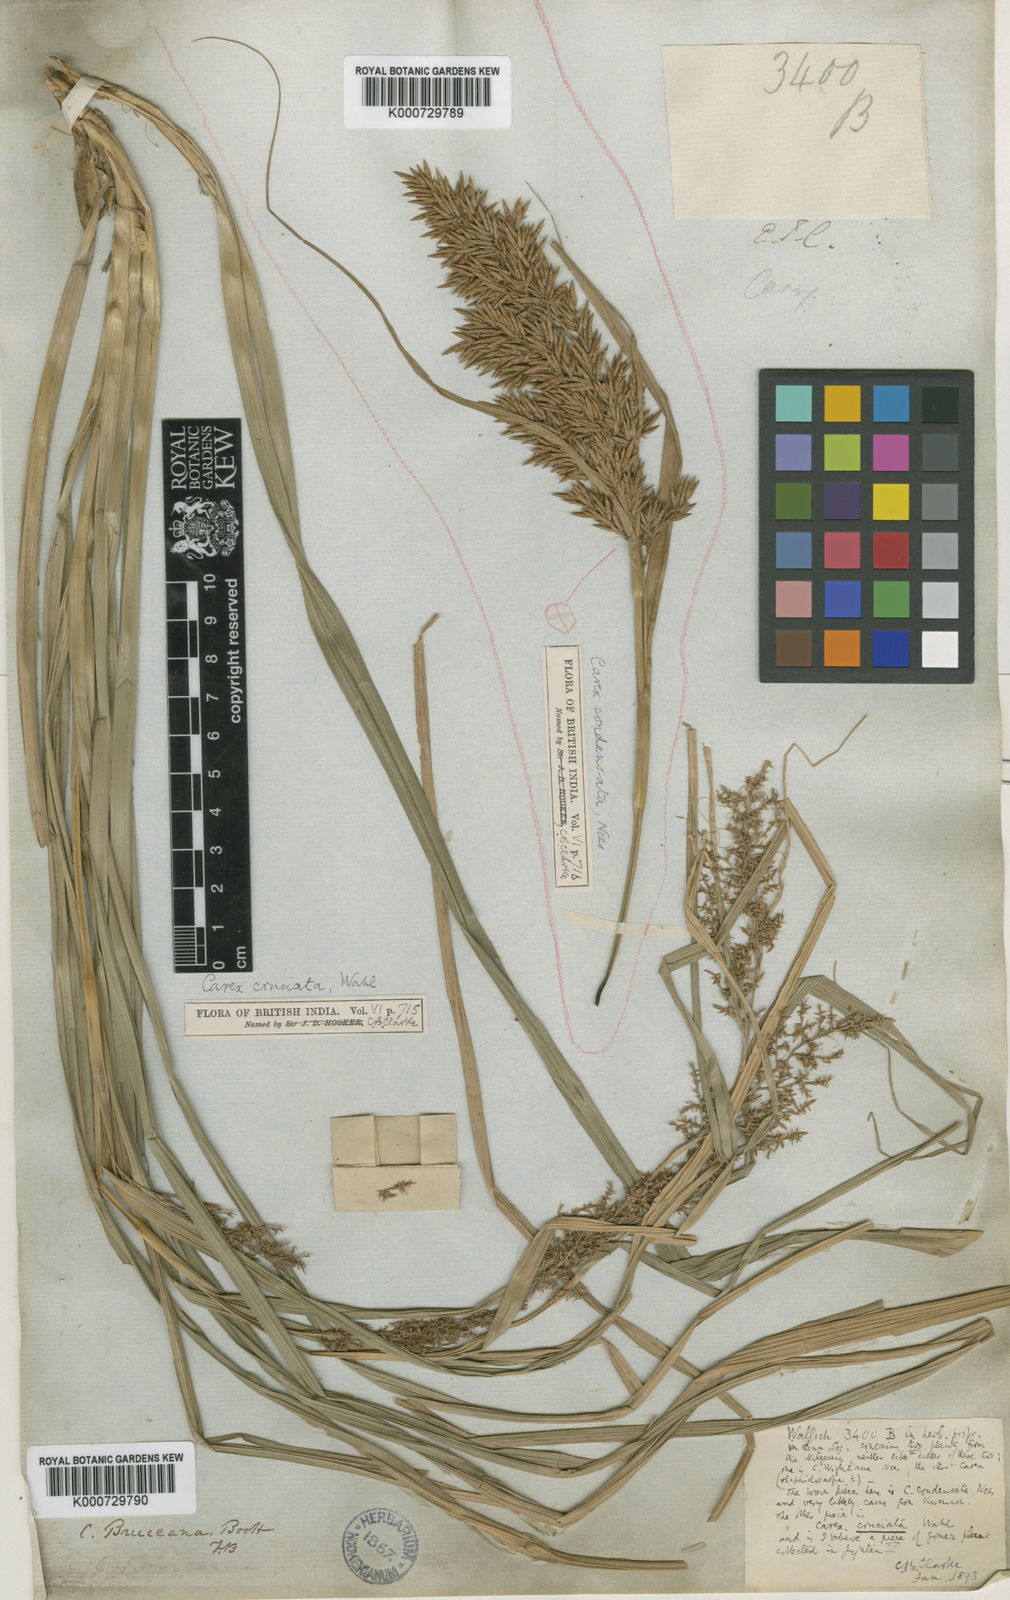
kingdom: Plantae
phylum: Tracheophyta
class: Liliopsida
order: Poales
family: Cyperaceae
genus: Carex
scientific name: Carex
